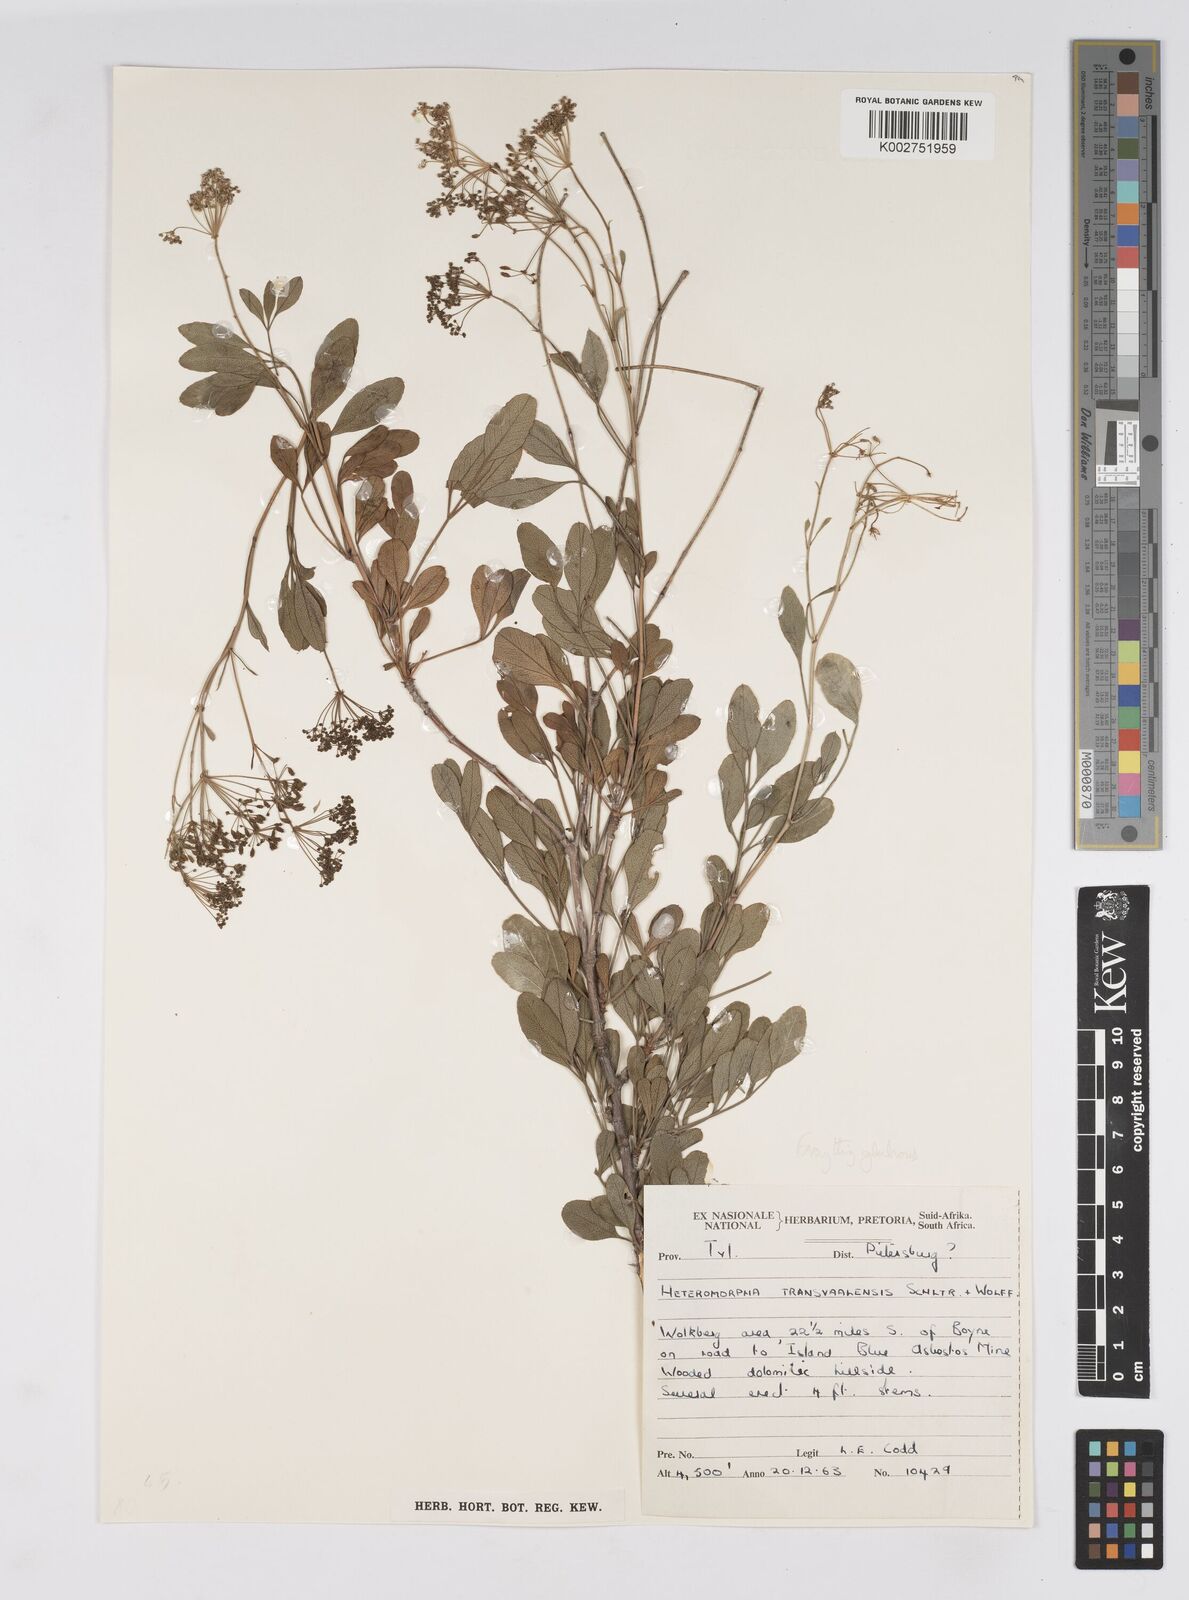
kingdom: Plantae
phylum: Tracheophyta
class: Magnoliopsida
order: Apiales
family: Apiaceae
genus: Heteromorpha
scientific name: Heteromorpha stenophylla
